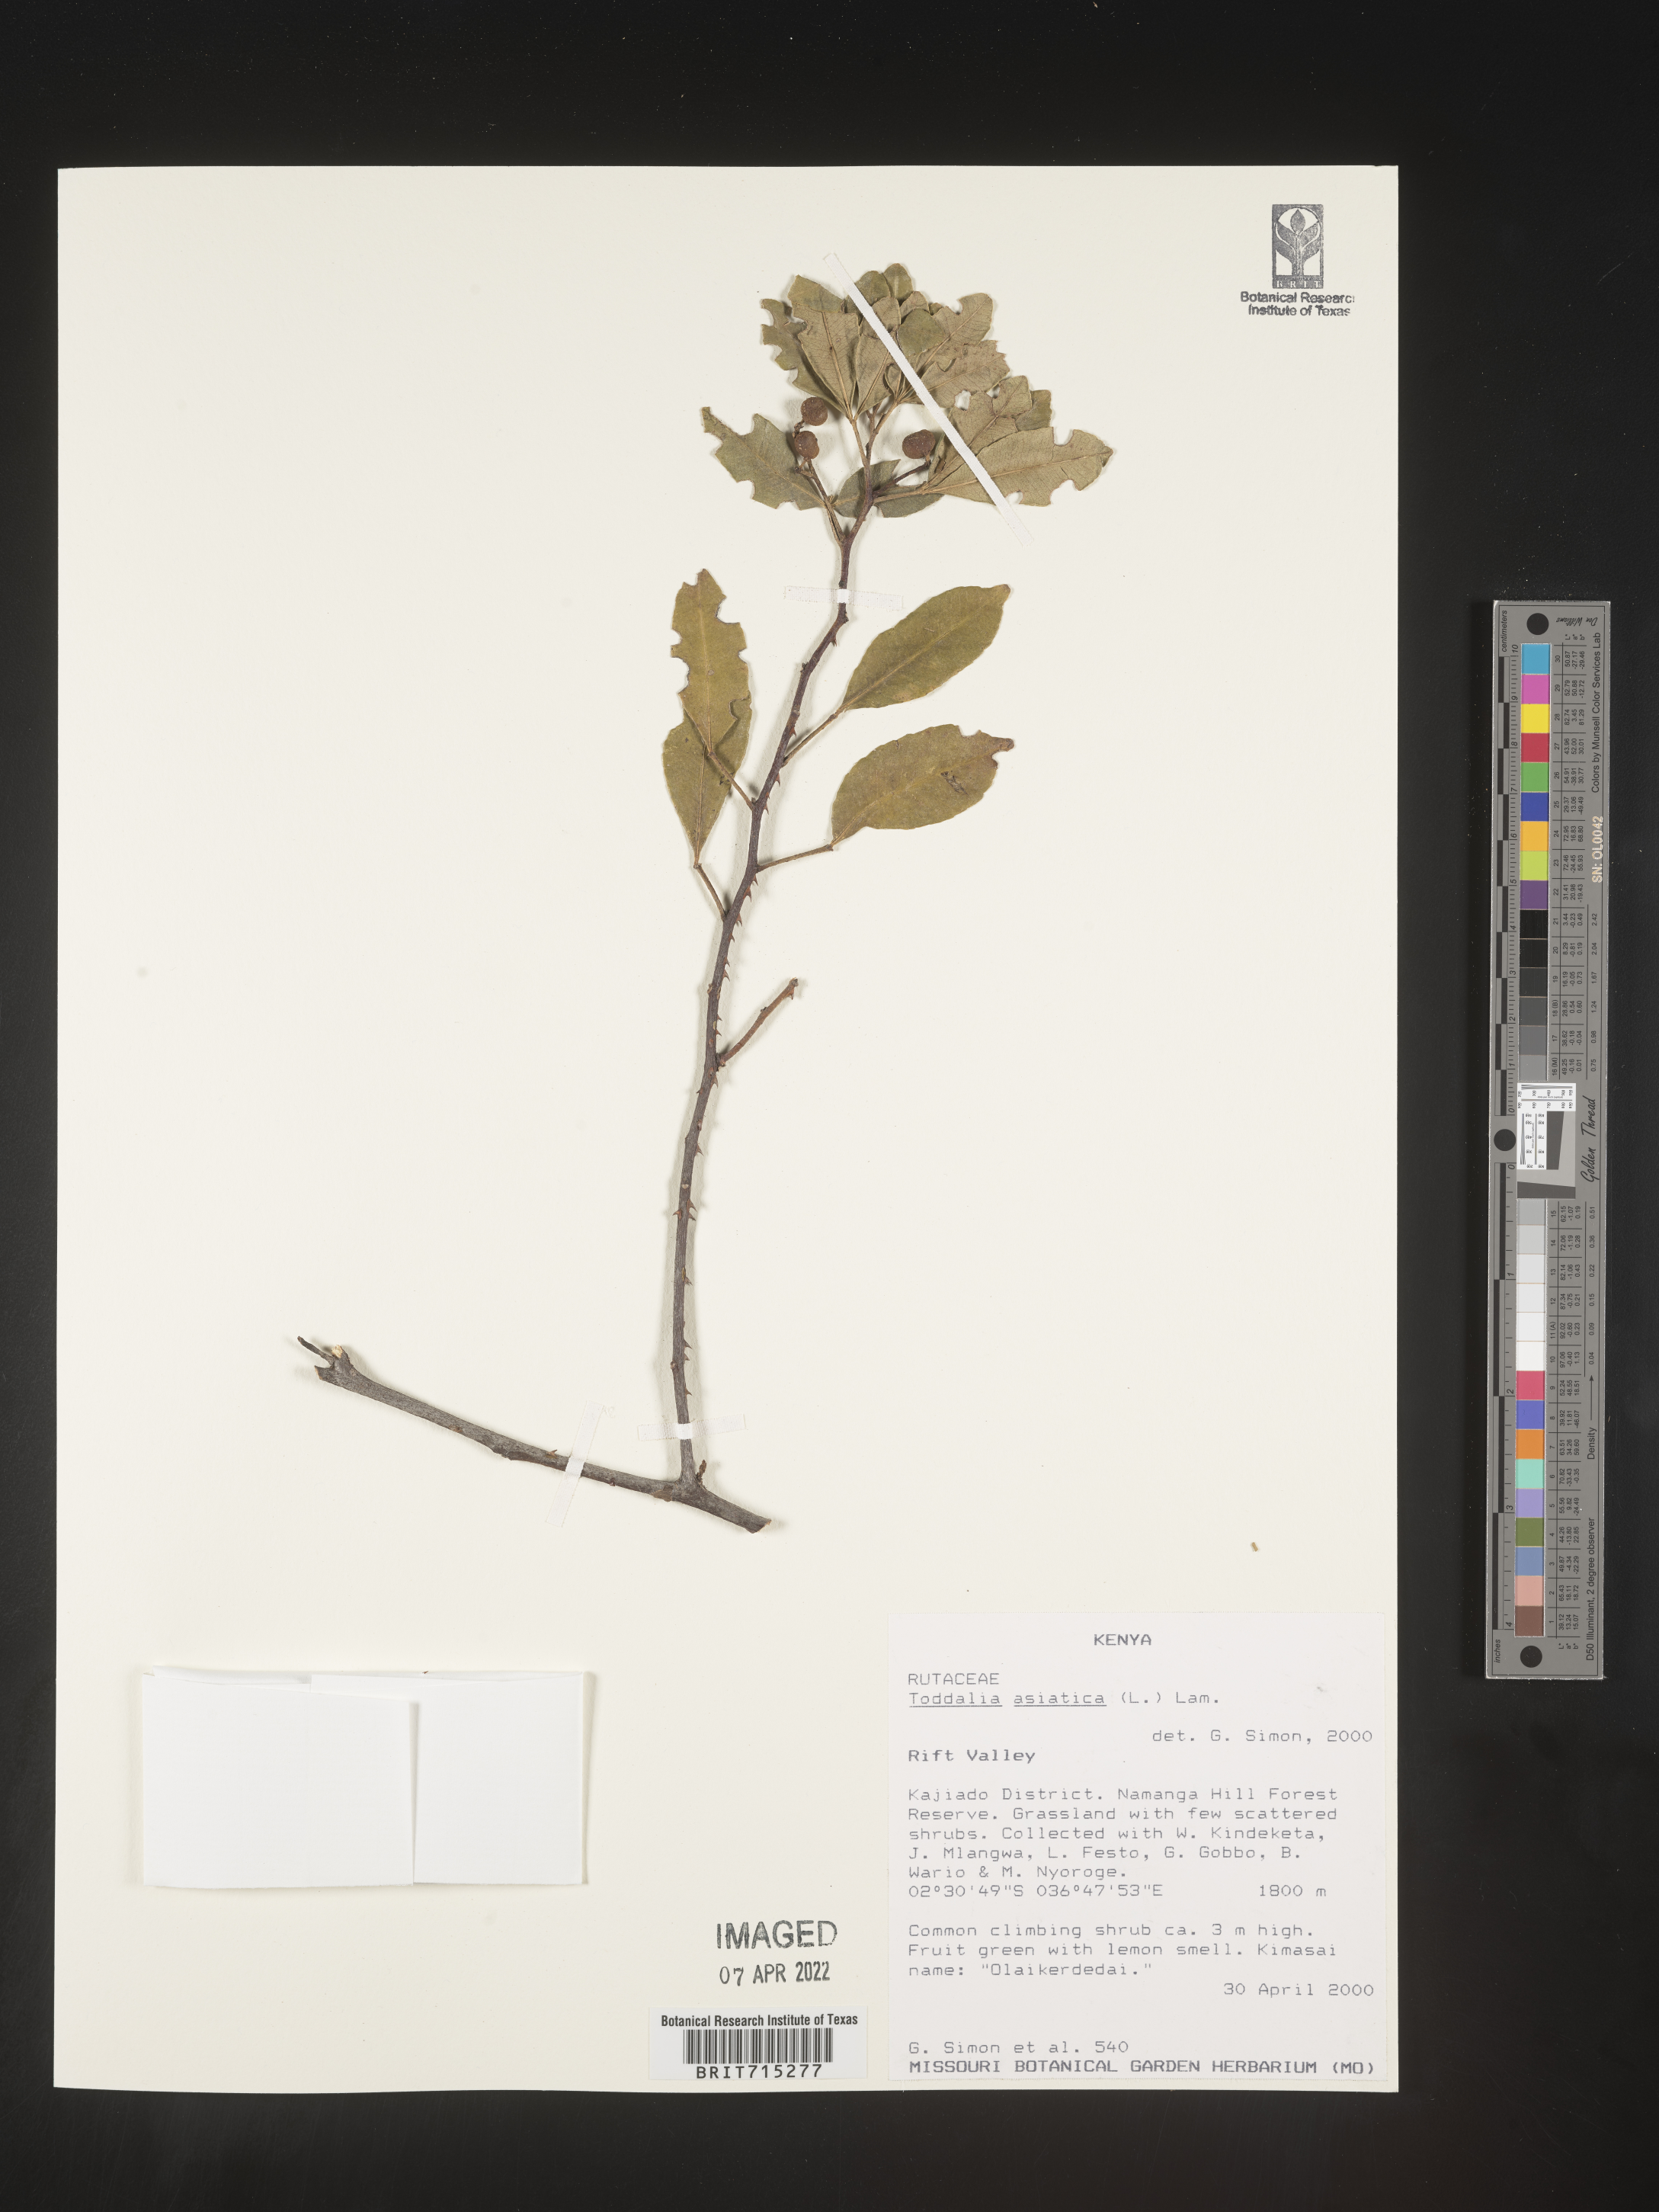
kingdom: Plantae
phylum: Tracheophyta
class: Magnoliopsida
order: Sapindales
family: Rutaceae
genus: Zanthoxylum
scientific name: Zanthoxylum
